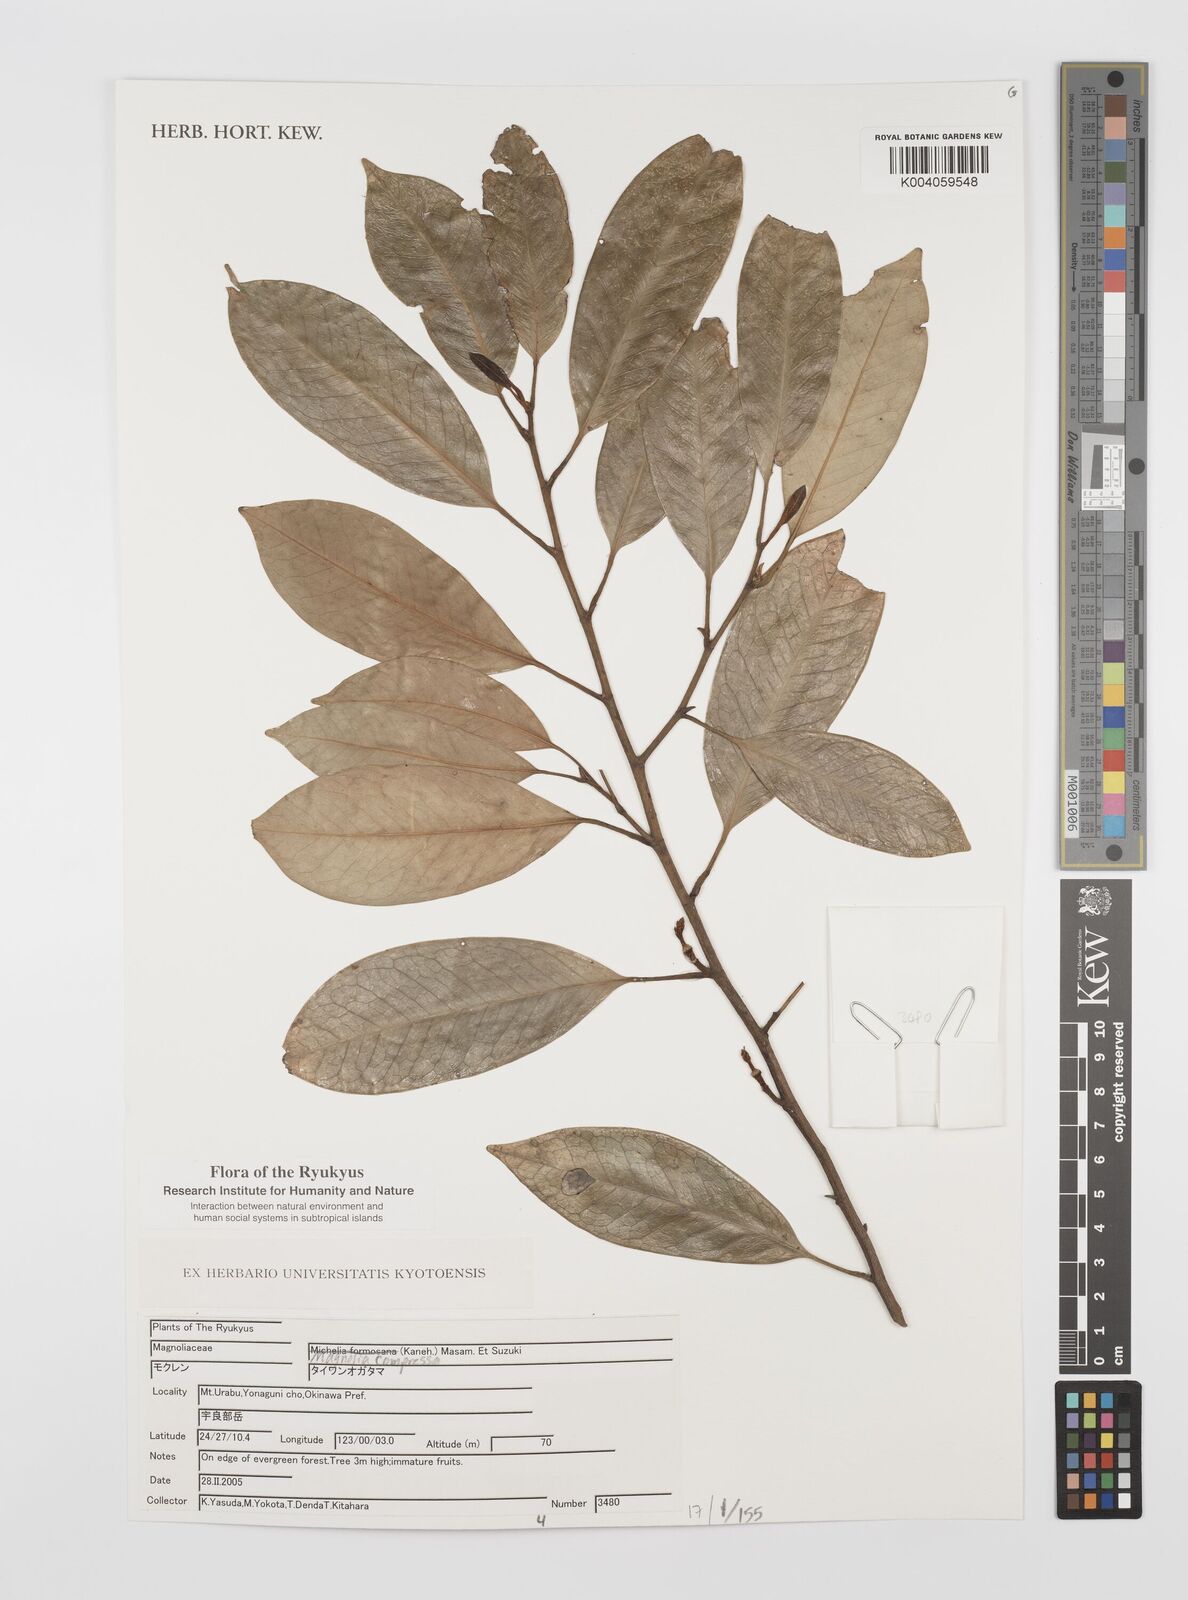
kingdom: Plantae
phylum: Tracheophyta
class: Magnoliopsida
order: Magnoliales
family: Magnoliaceae
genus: Magnolia
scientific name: Magnolia compressa
